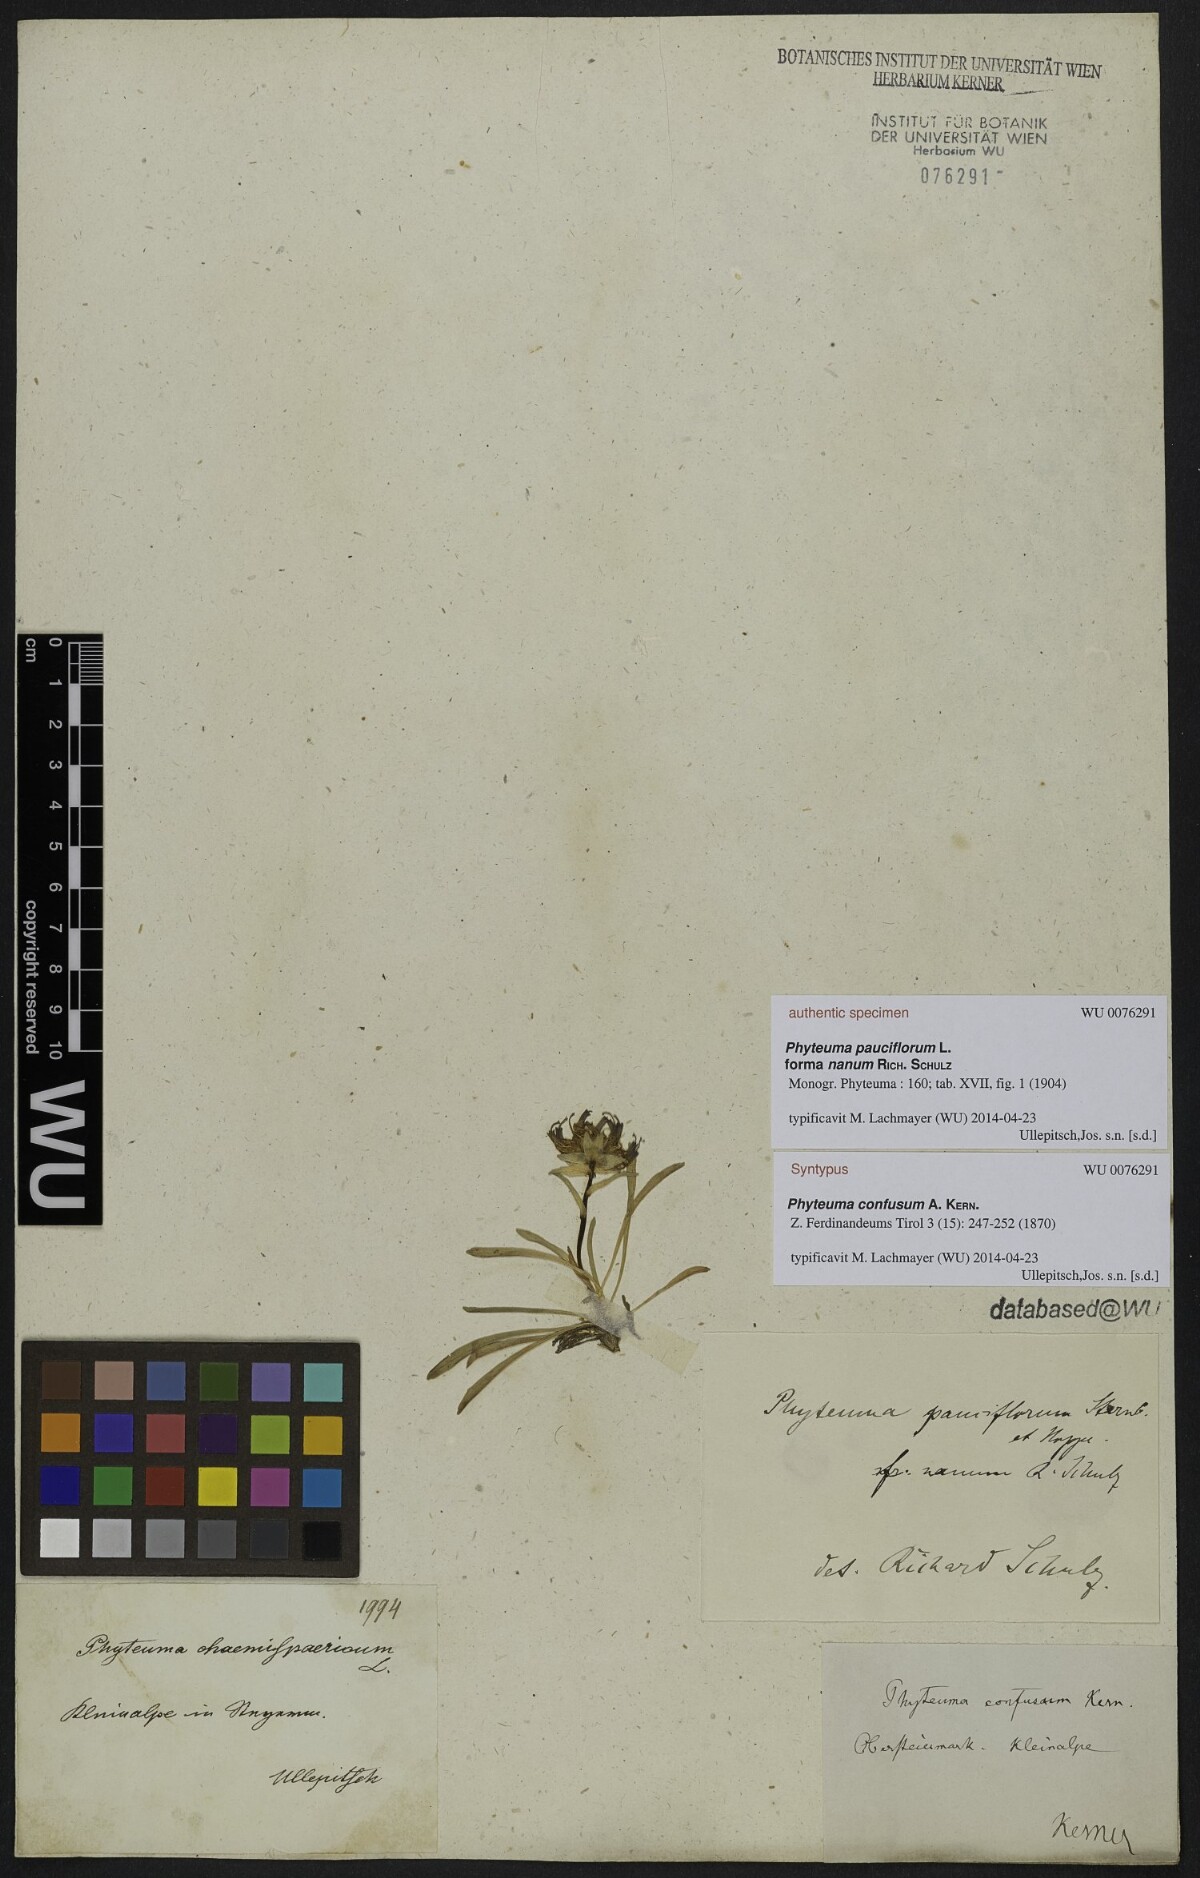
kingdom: Plantae
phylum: Tracheophyta
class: Magnoliopsida
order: Asterales
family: Campanulaceae
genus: Phyteuma
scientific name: Phyteuma confusum
